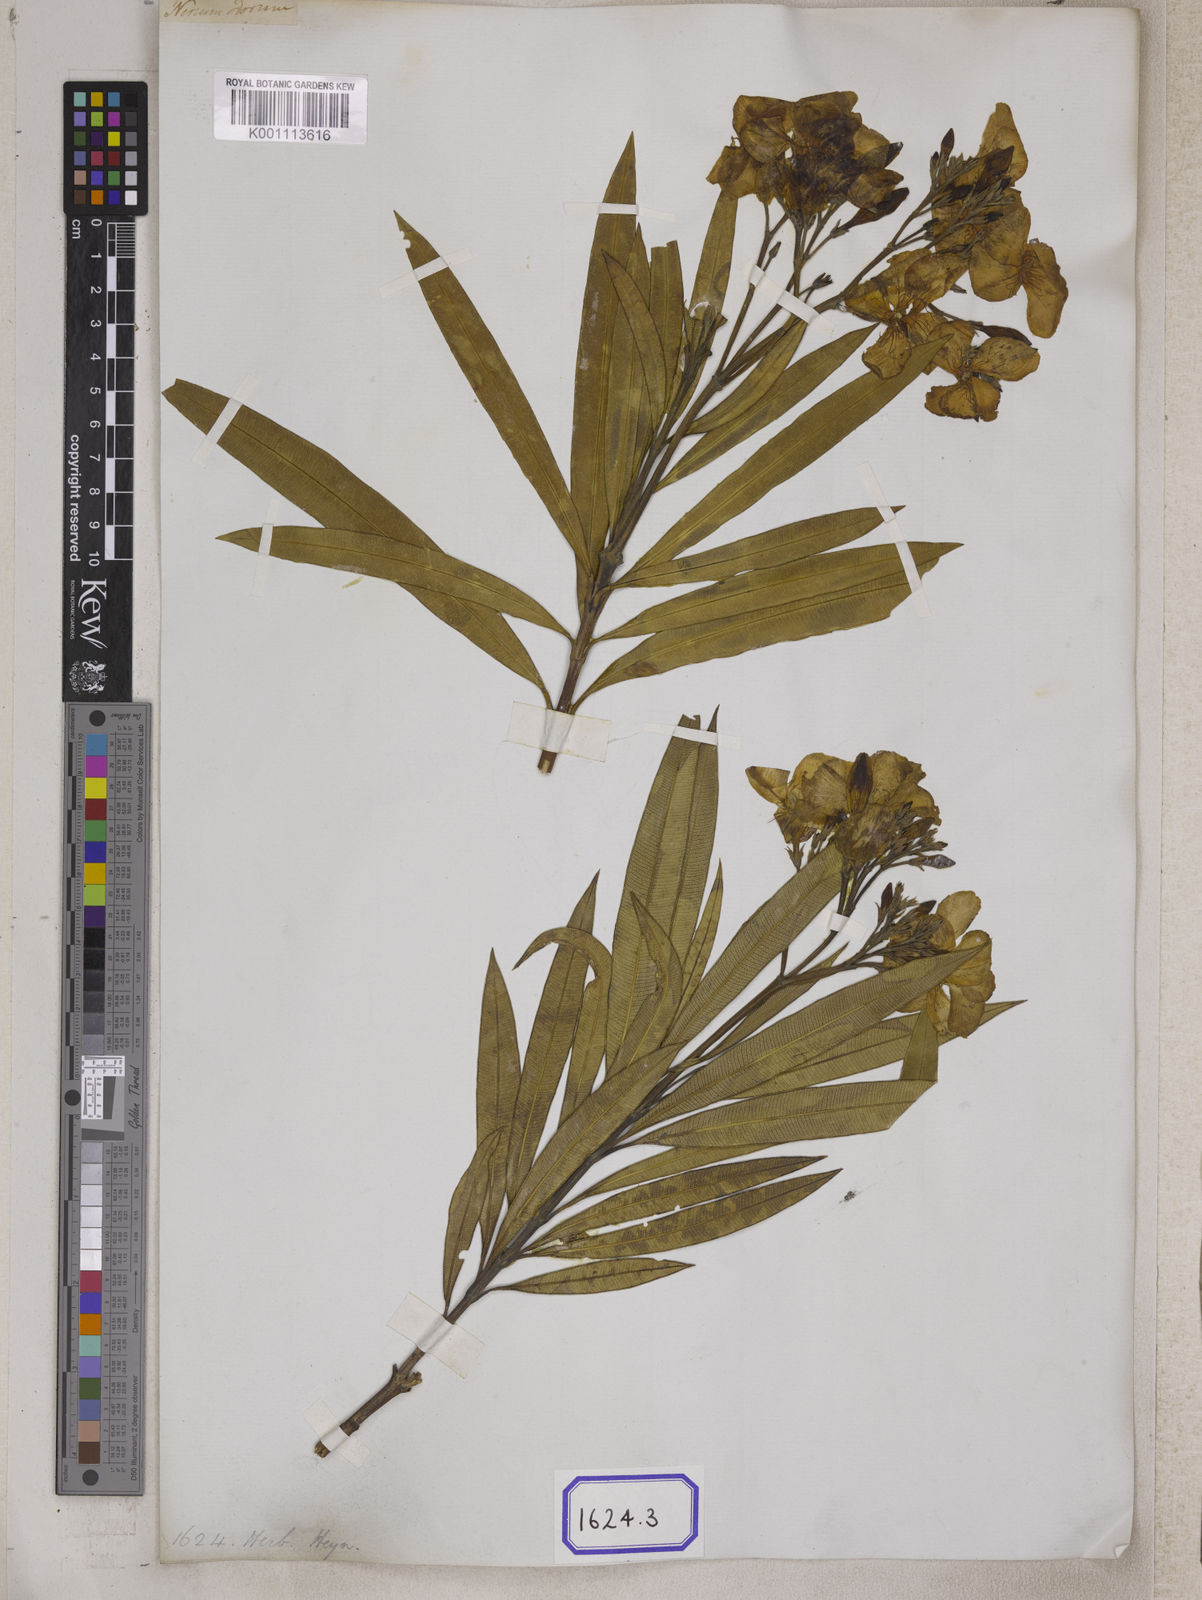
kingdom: Plantae
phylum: Tracheophyta
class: Magnoliopsida
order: Gentianales
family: Apocynaceae
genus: Nerium
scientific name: Nerium indicum
